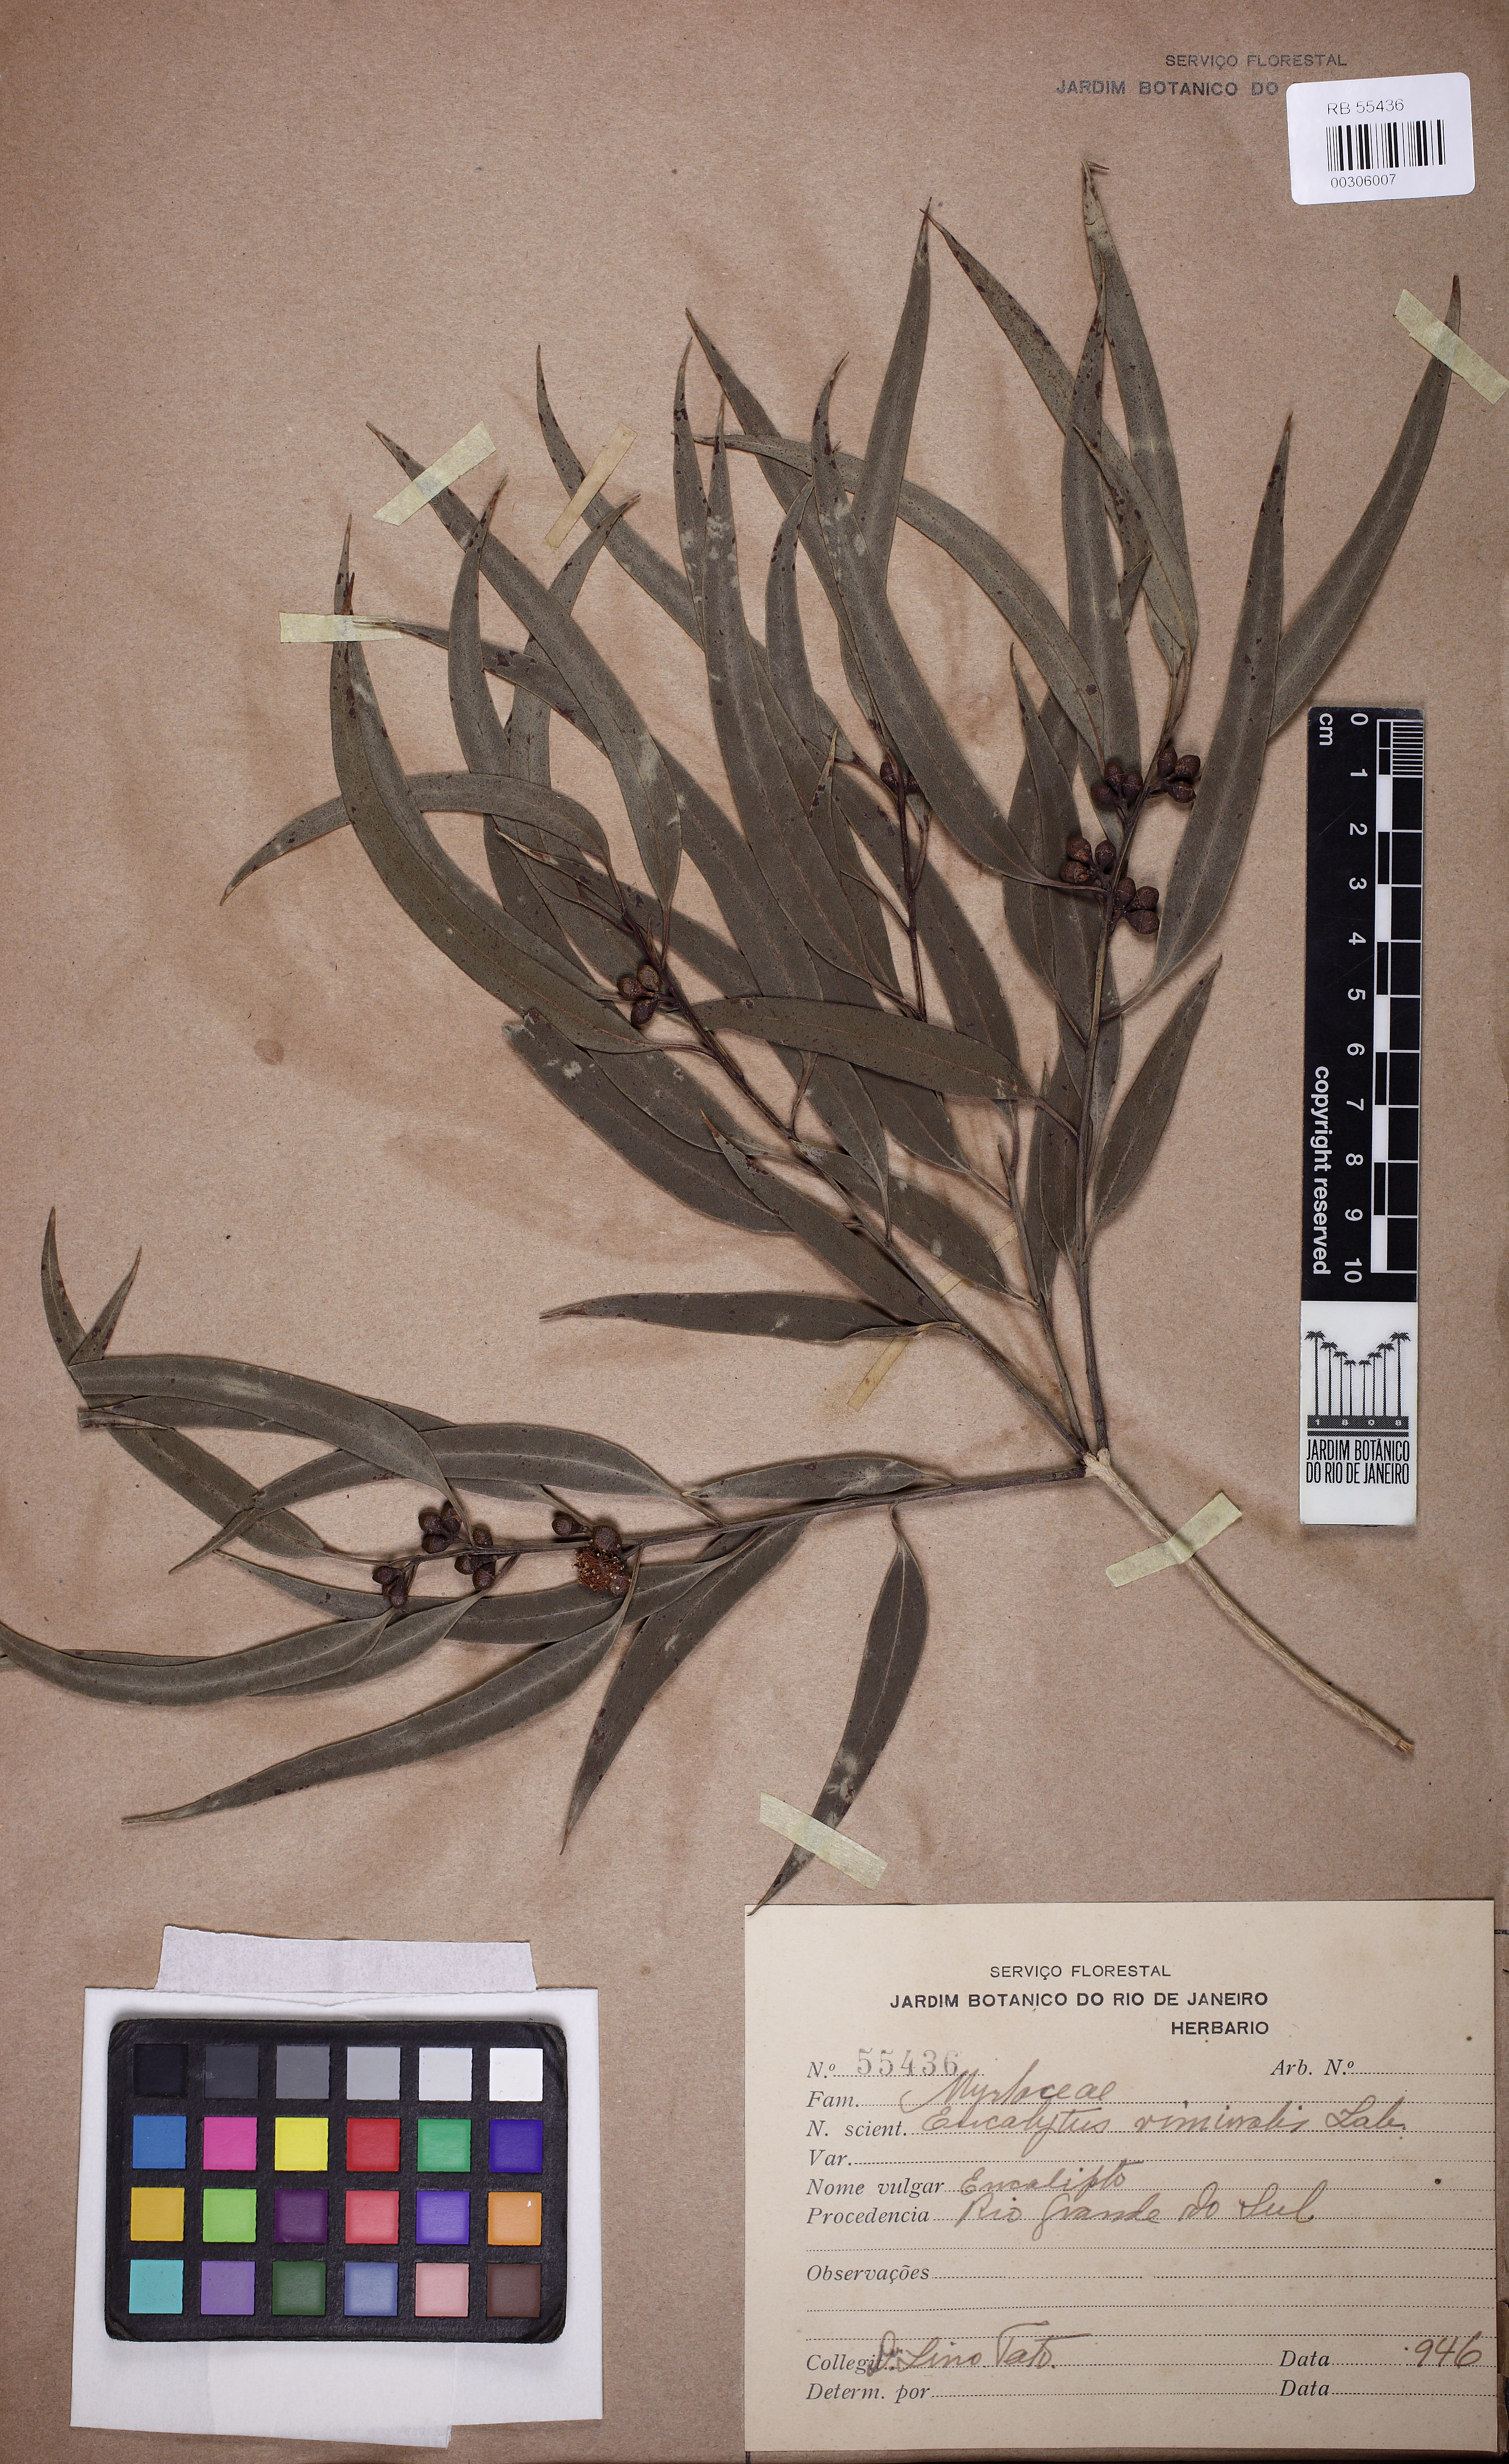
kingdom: Plantae
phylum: Tracheophyta
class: Magnoliopsida
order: Myrtales
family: Myrtaceae
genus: Eucalyptus
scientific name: Eucalyptus viminalis
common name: Manna gum
